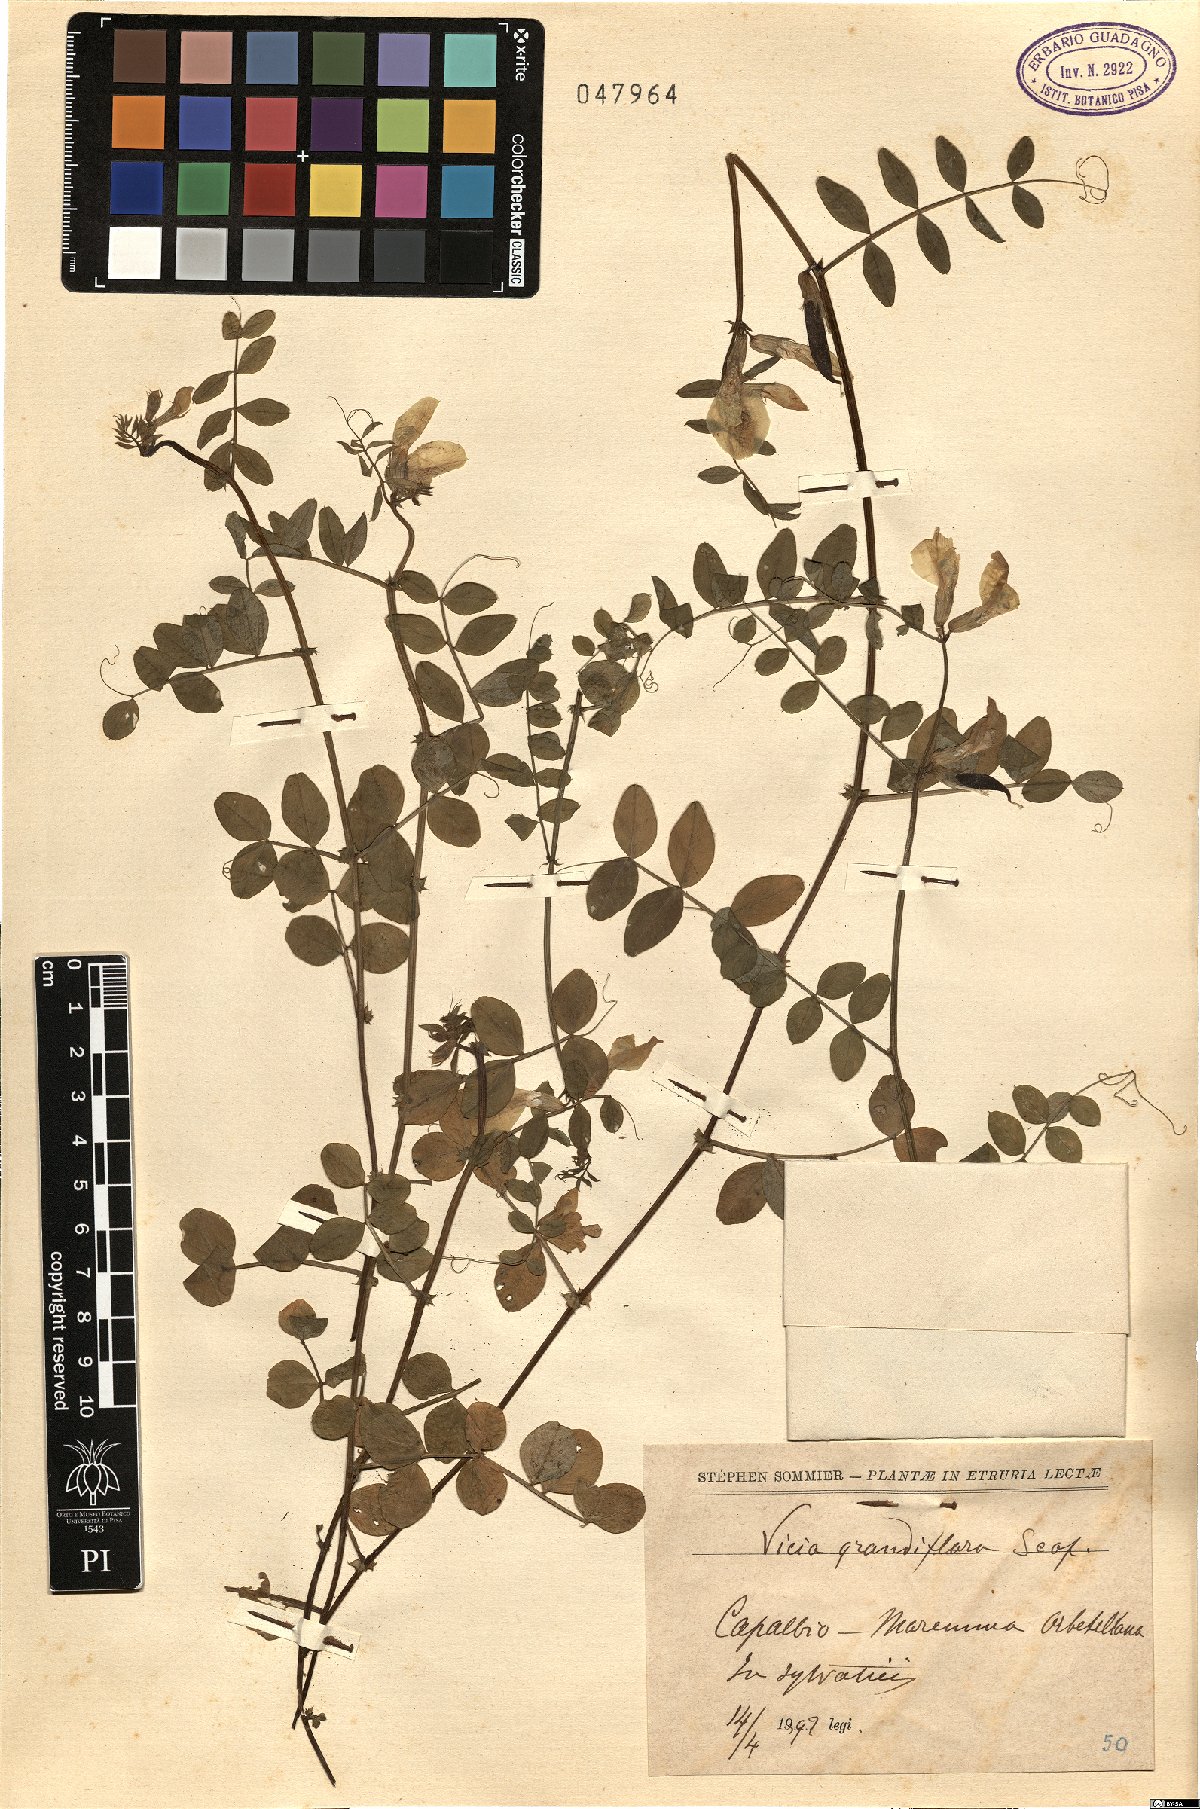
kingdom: Plantae
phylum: Tracheophyta
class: Magnoliopsida
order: Fabales
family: Fabaceae
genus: Vicia
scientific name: Vicia grandiflora
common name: Large yellow vetch
